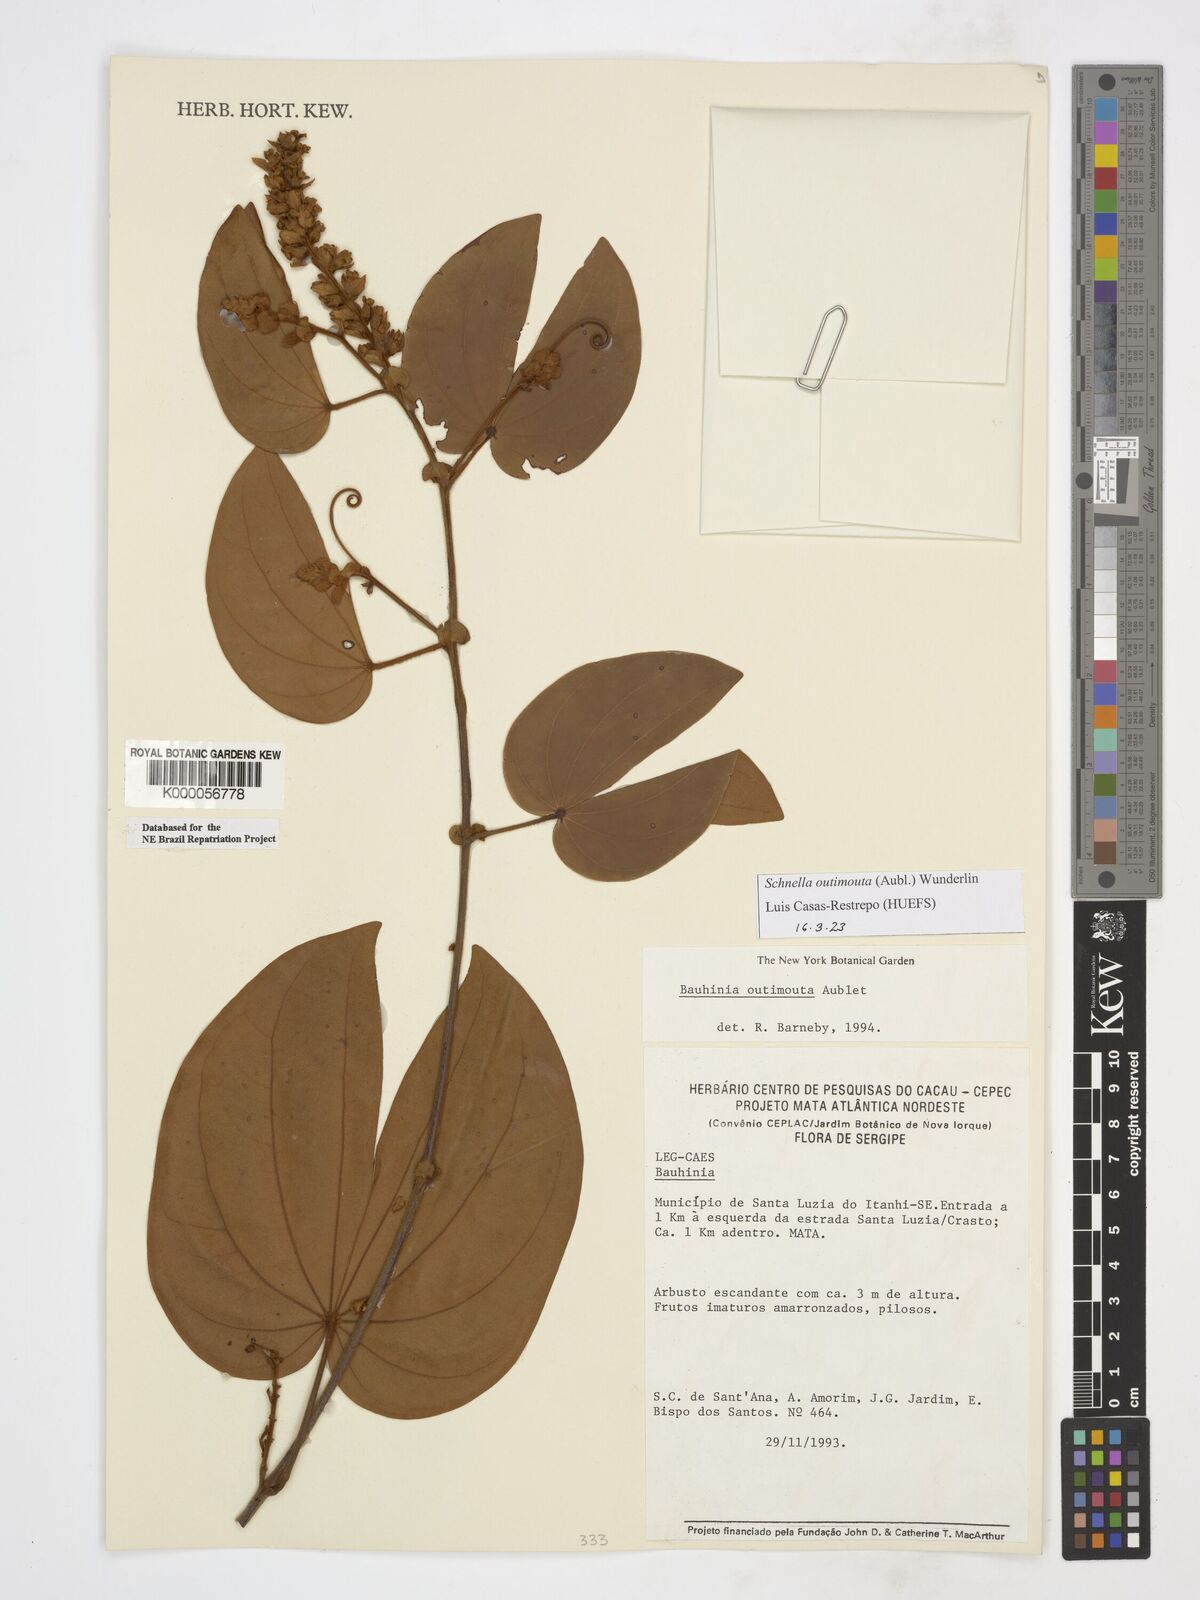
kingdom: Plantae
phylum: Tracheophyta
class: Magnoliopsida
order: Fabales
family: Fabaceae
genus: Schnella
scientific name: Schnella outimouta
